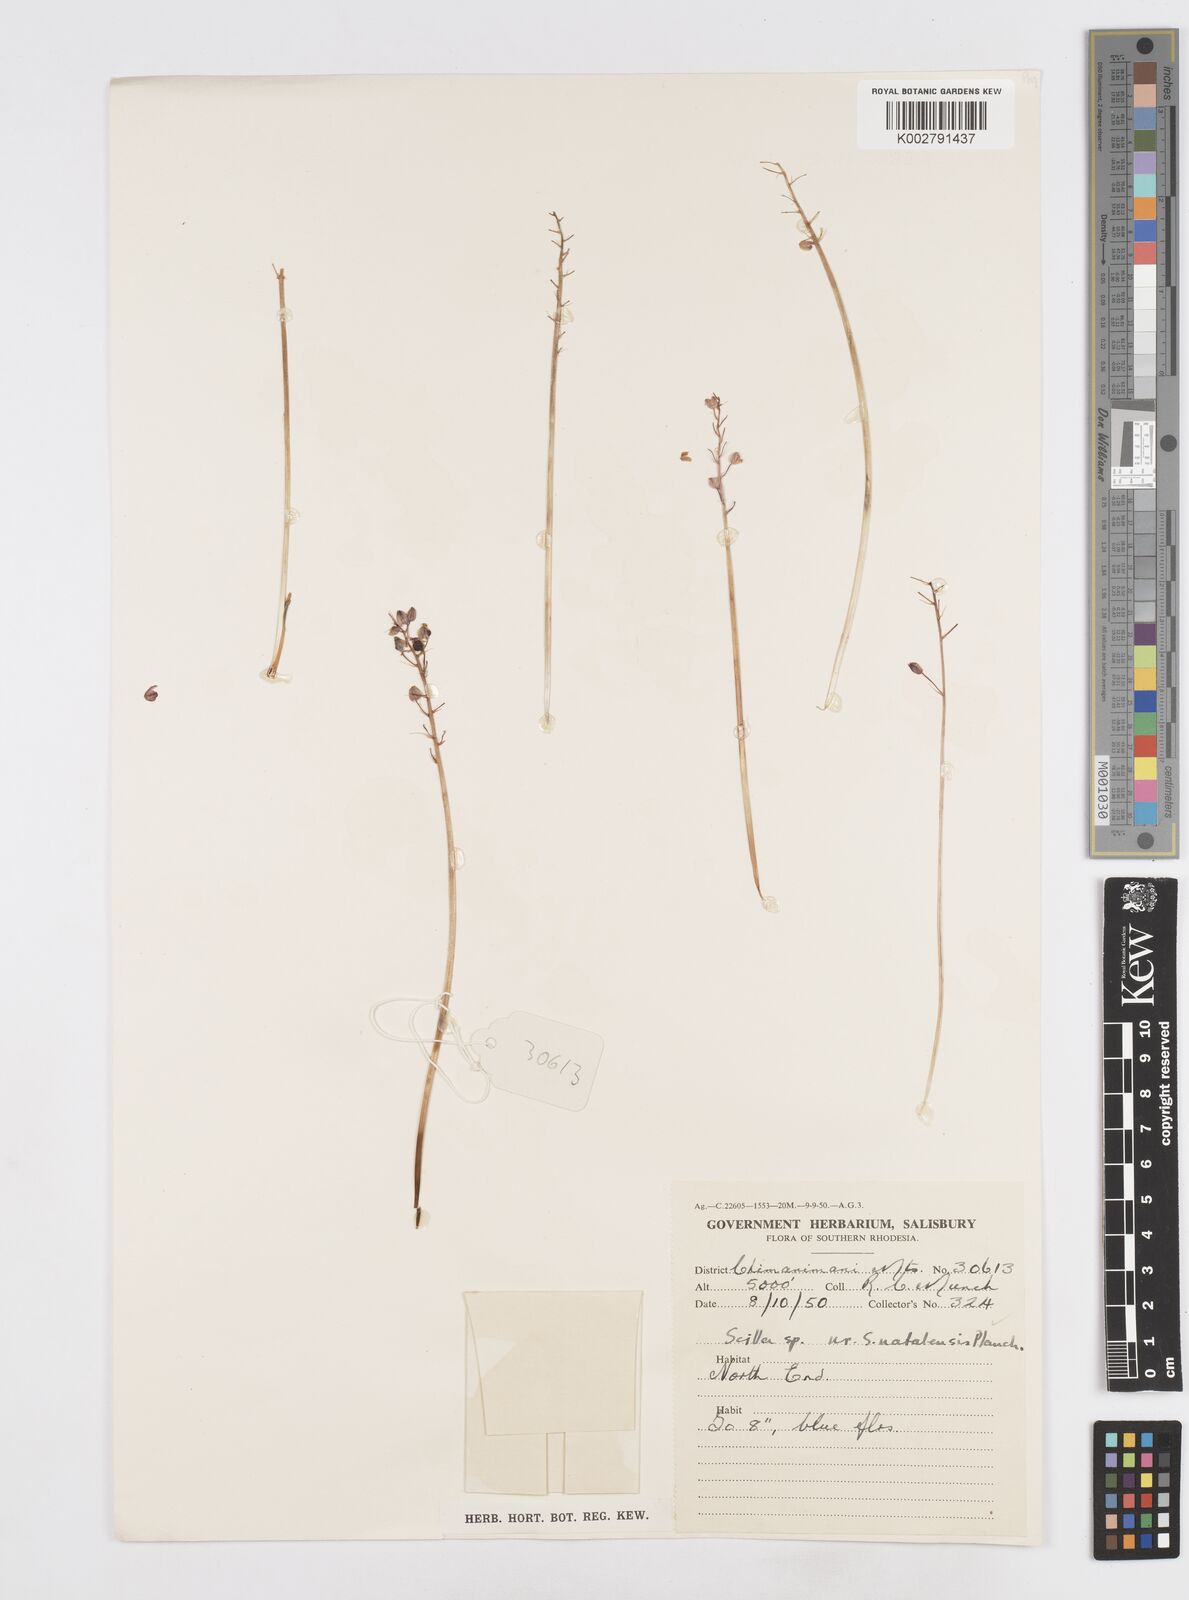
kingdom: Plantae
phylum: Tracheophyta
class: Liliopsida
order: Asparagales
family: Asparagaceae
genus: Merwilla
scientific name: Merwilla plumbea
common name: Blue-squill
